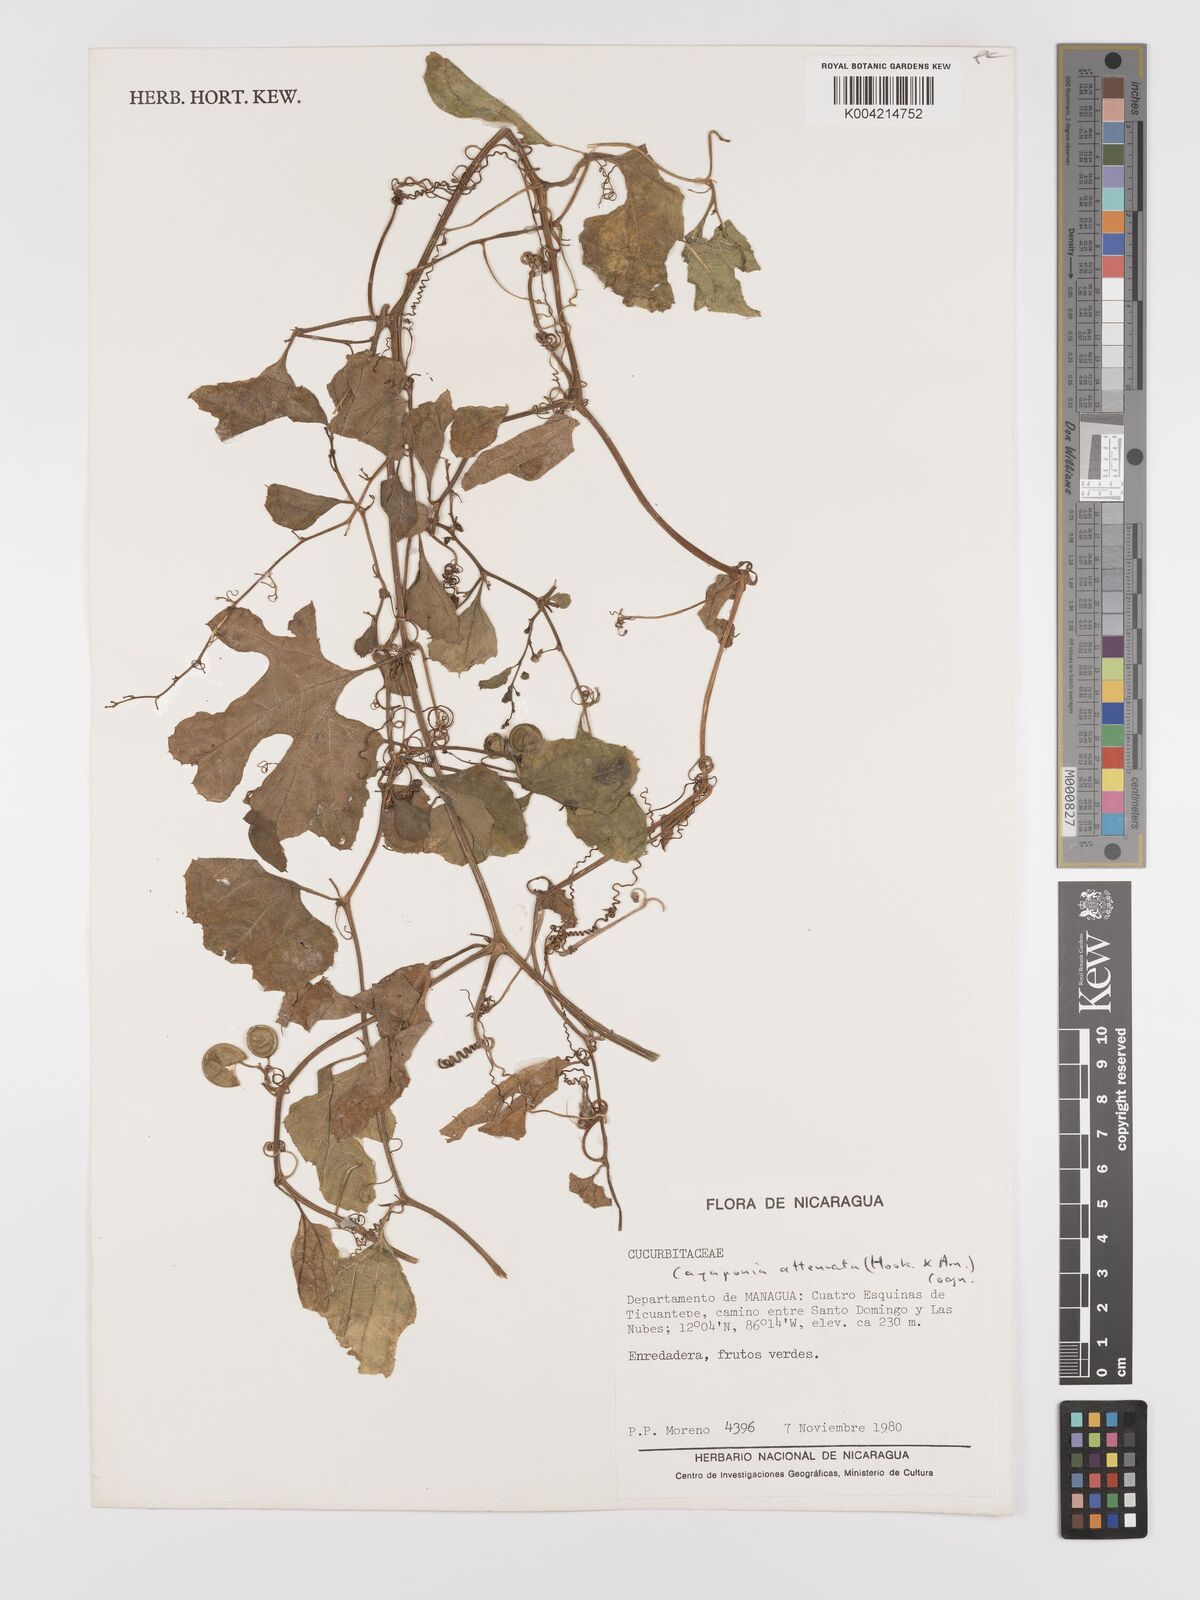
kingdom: Plantae
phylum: Tracheophyta
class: Magnoliopsida
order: Cucurbitales
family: Cucurbitaceae
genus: Cayaponia
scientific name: Cayaponia attenuata
